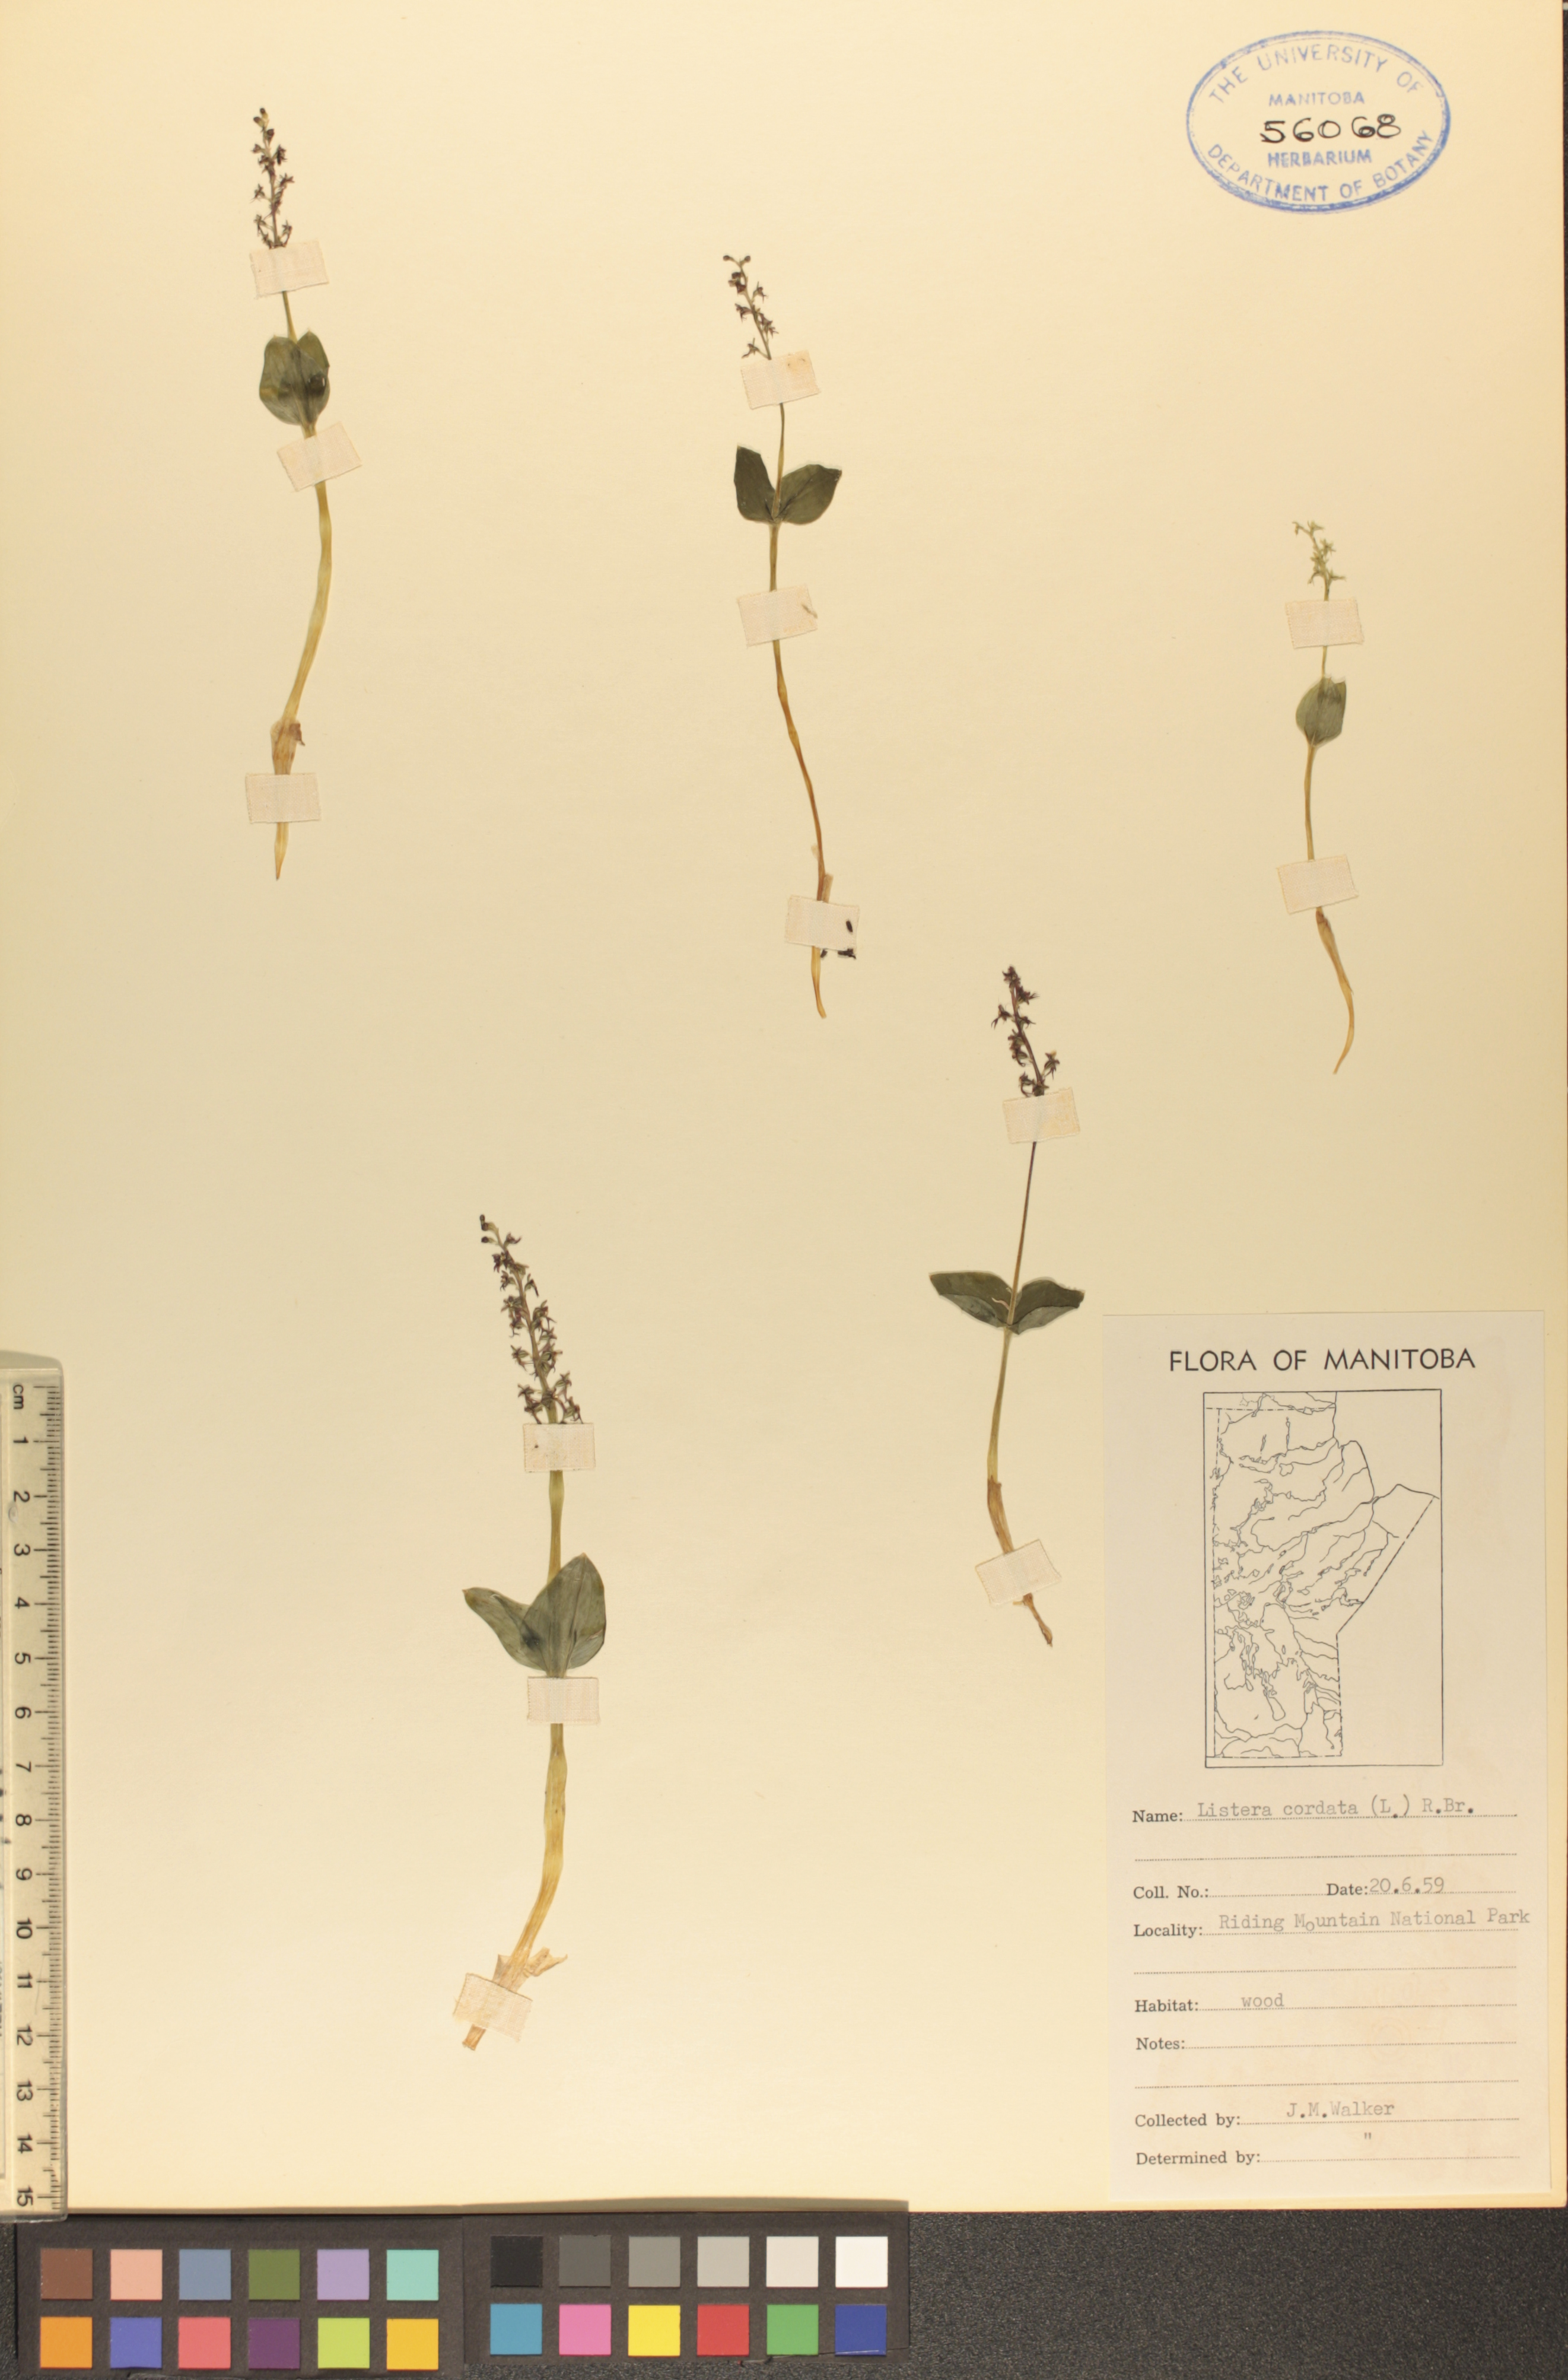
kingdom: Plantae
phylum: Tracheophyta
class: Liliopsida
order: Asparagales
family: Orchidaceae
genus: Neottia
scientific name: Neottia cordata
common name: Lesser twayblade
